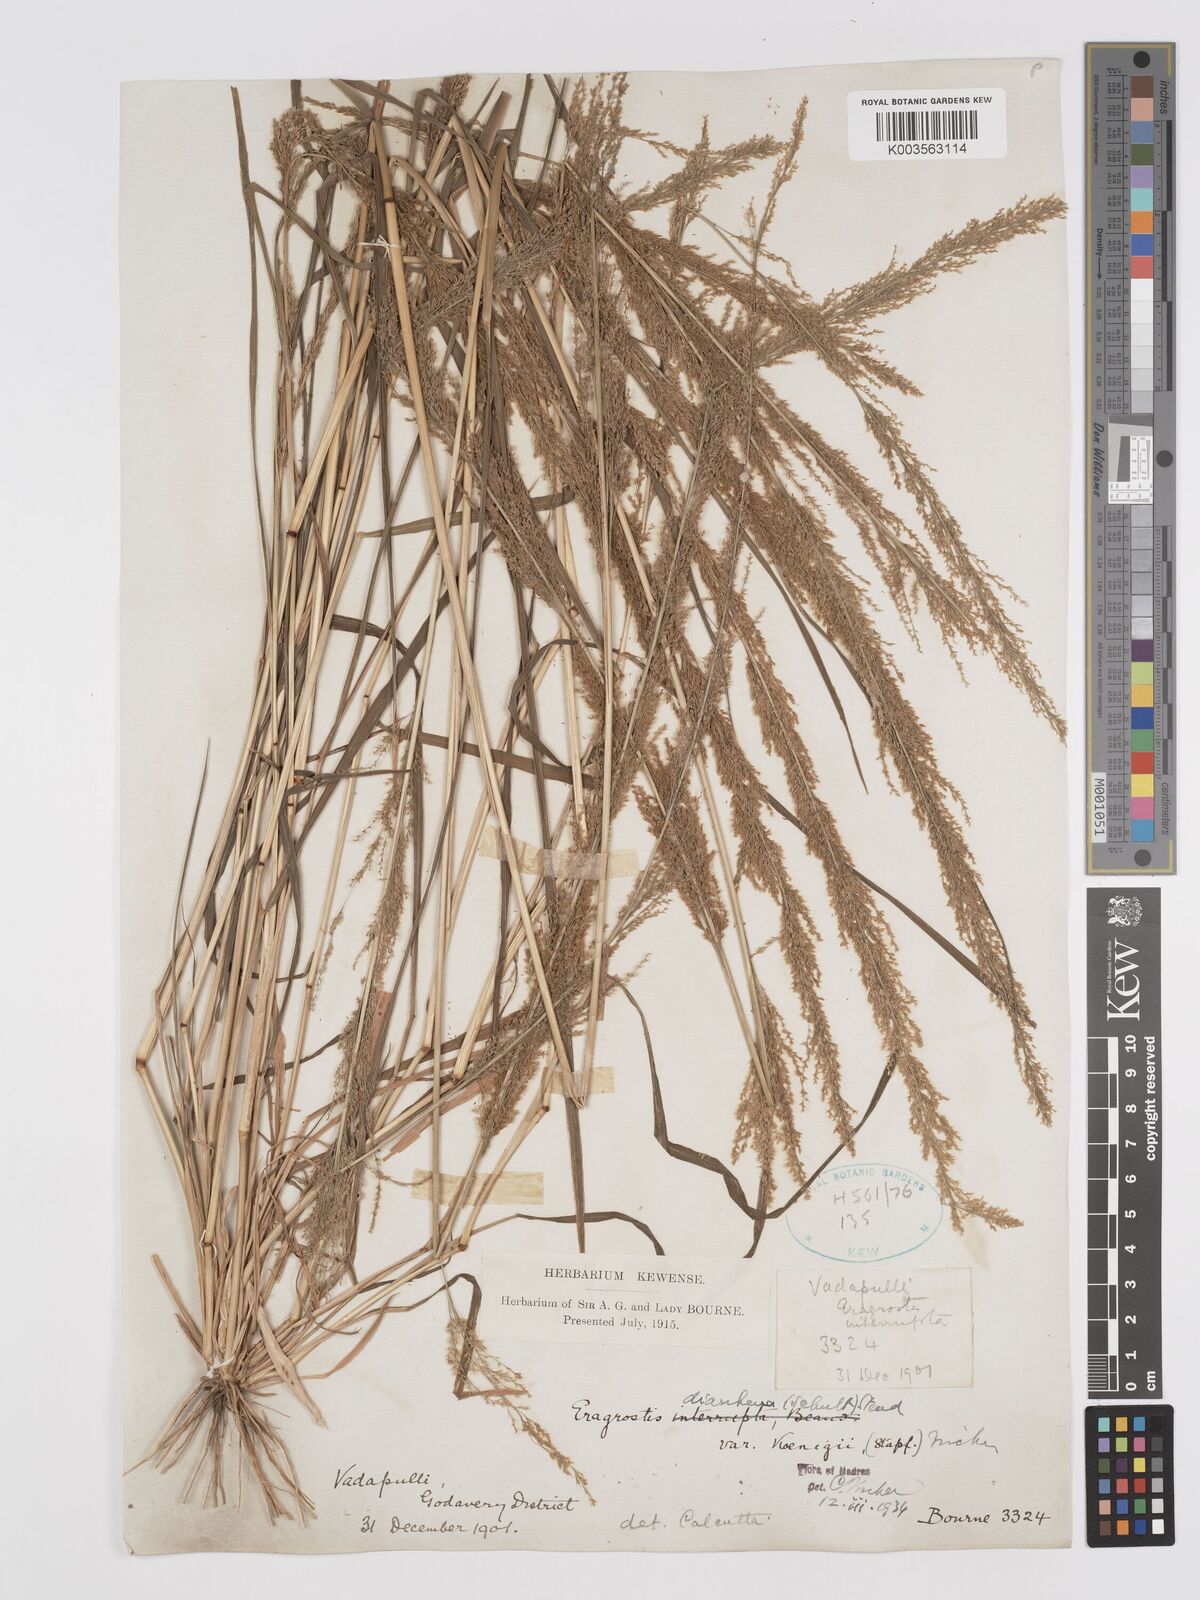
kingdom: Plantae
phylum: Tracheophyta
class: Liliopsida
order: Poales
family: Poaceae
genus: Eragrostis
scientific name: Eragrostis japonica
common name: Pond lovegrass
